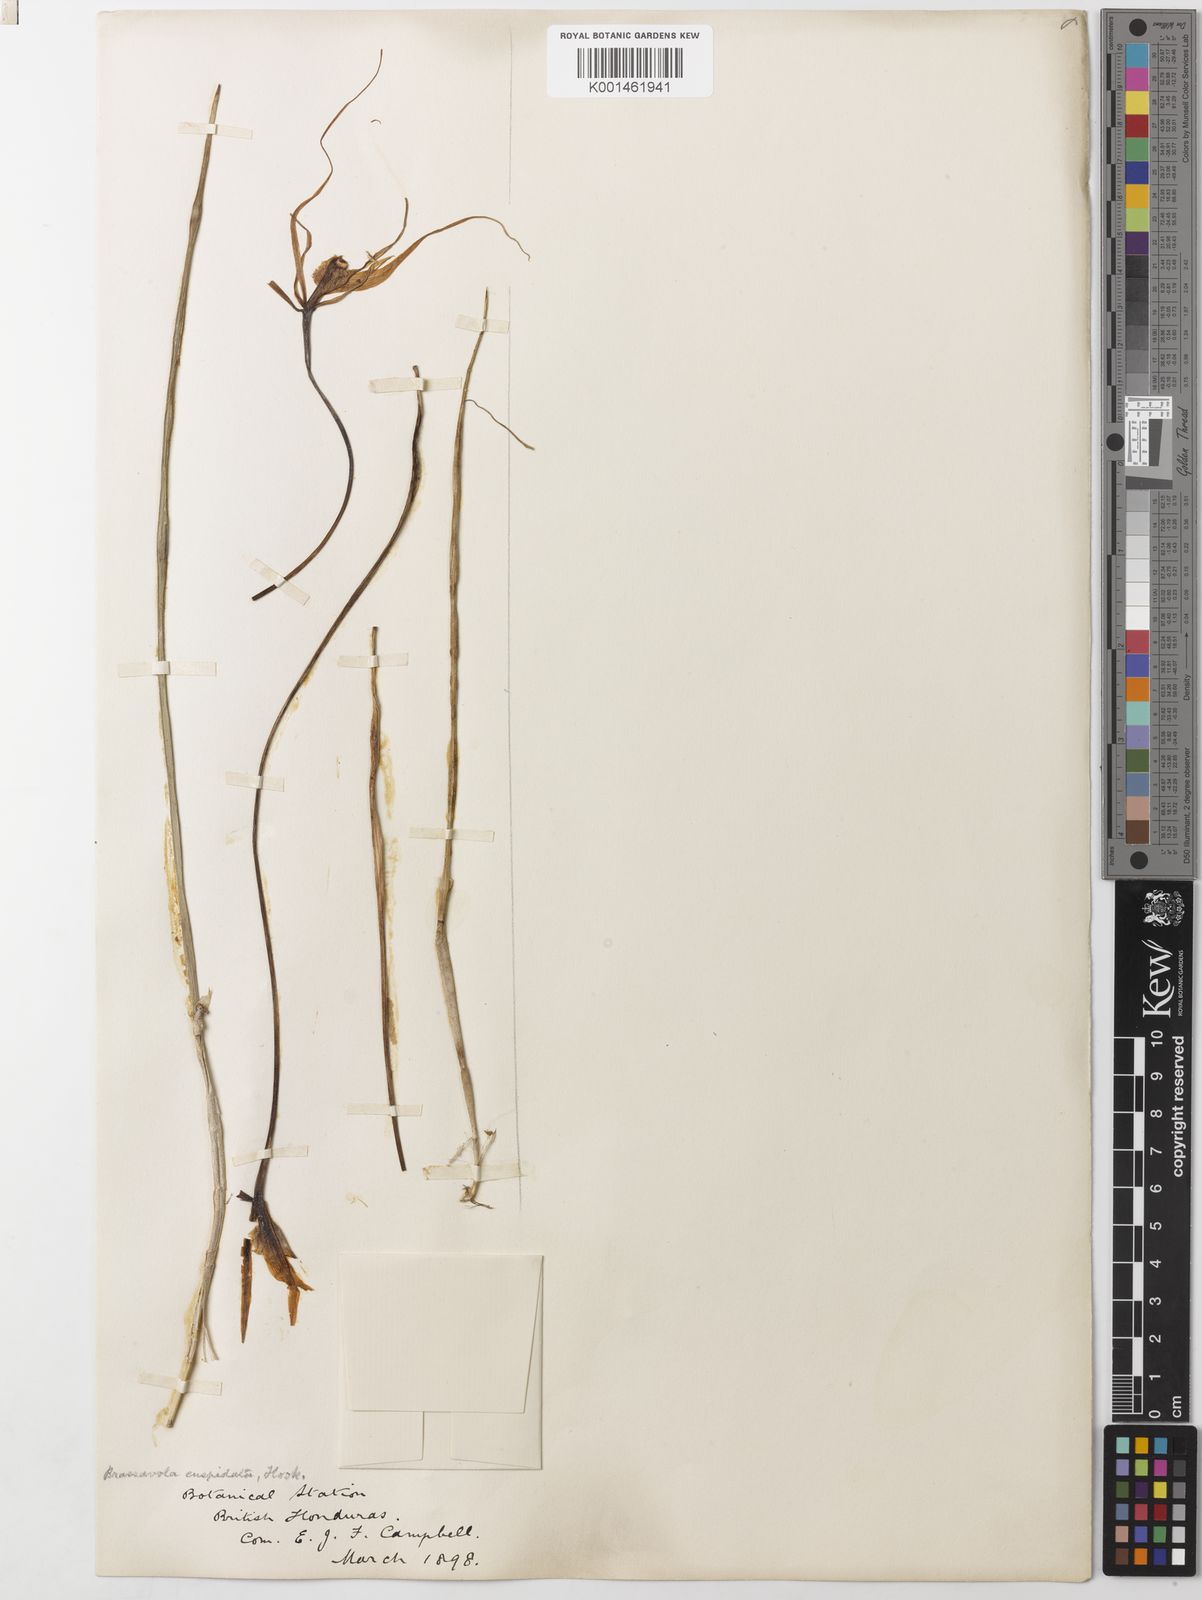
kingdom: Plantae
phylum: Tracheophyta
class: Liliopsida
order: Asparagales
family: Orchidaceae
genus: Brassavola
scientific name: Brassavola cucullata
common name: Daddy longlegs orchid
